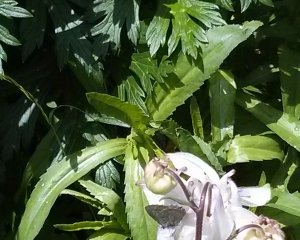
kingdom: Animalia
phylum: Arthropoda
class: Insecta
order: Lepidoptera
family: Lycaenidae
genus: Celastrina
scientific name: Celastrina serotina
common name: Cherry Gall Azure
